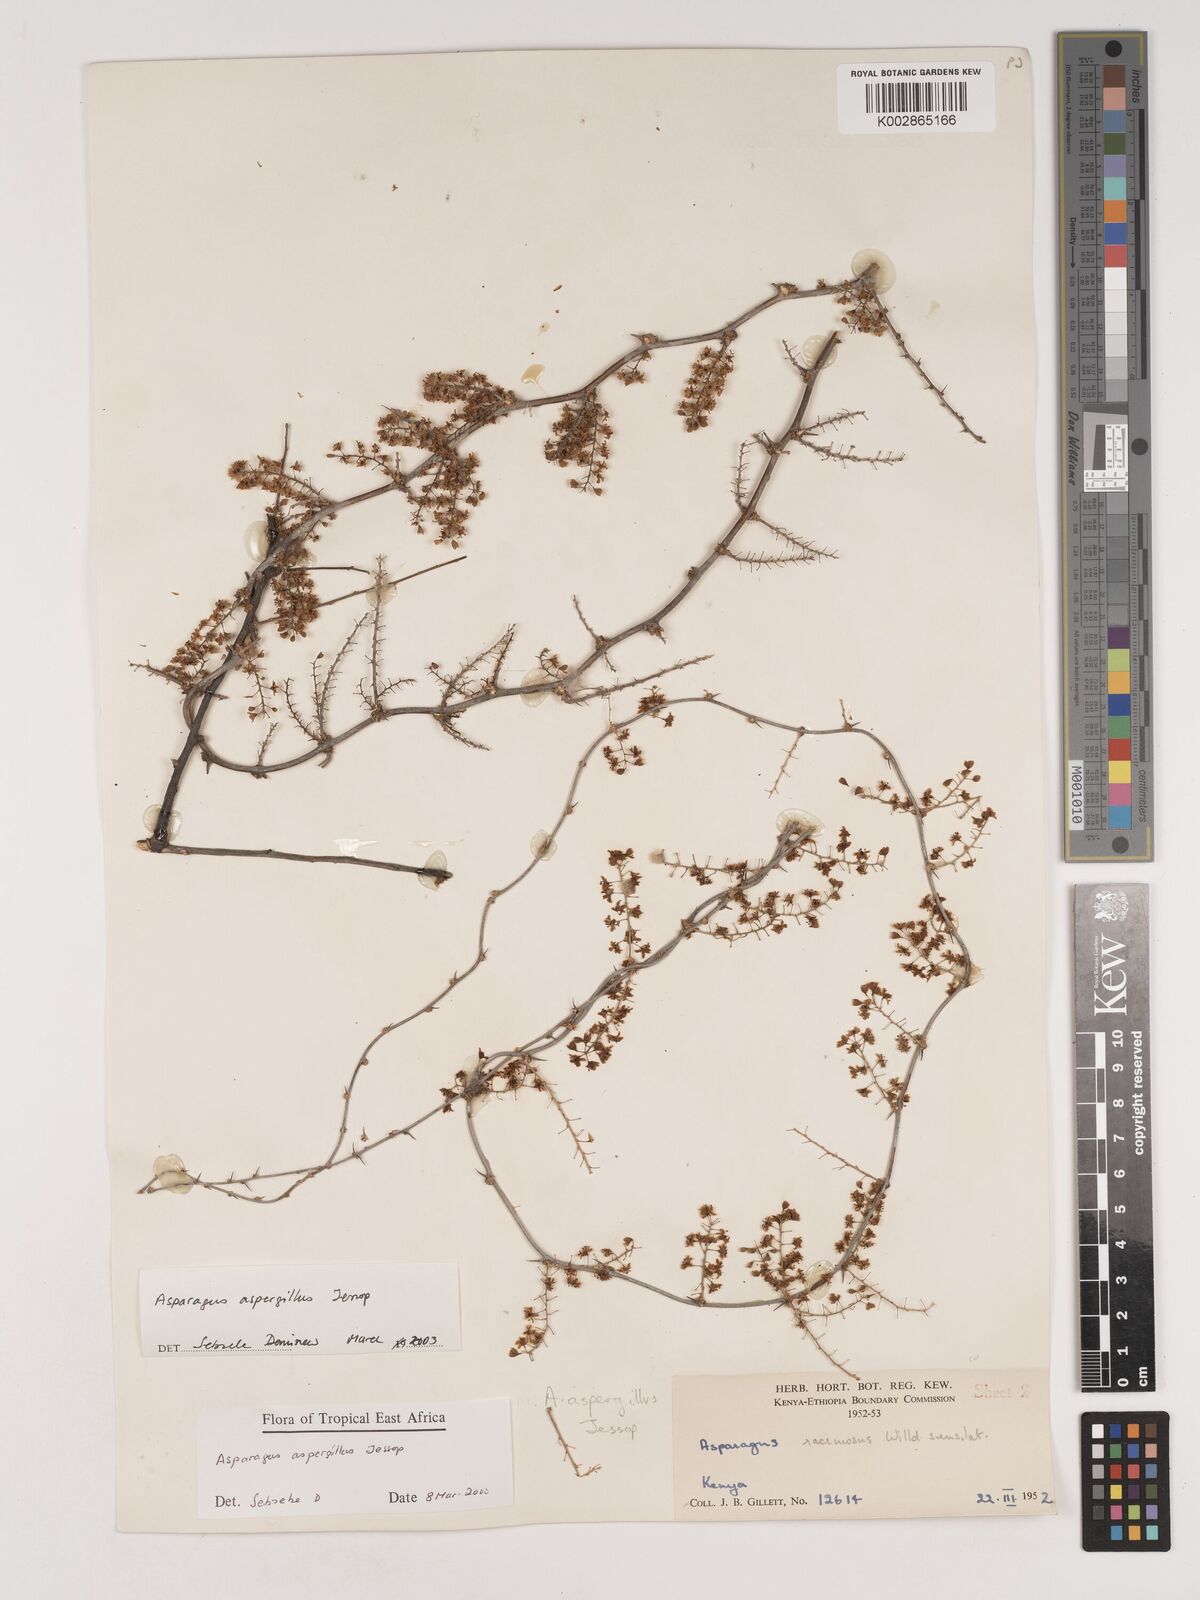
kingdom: Plantae
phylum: Tracheophyta
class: Liliopsida
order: Asparagales
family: Asparagaceae
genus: Asparagus
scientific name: Asparagus aspergillus
